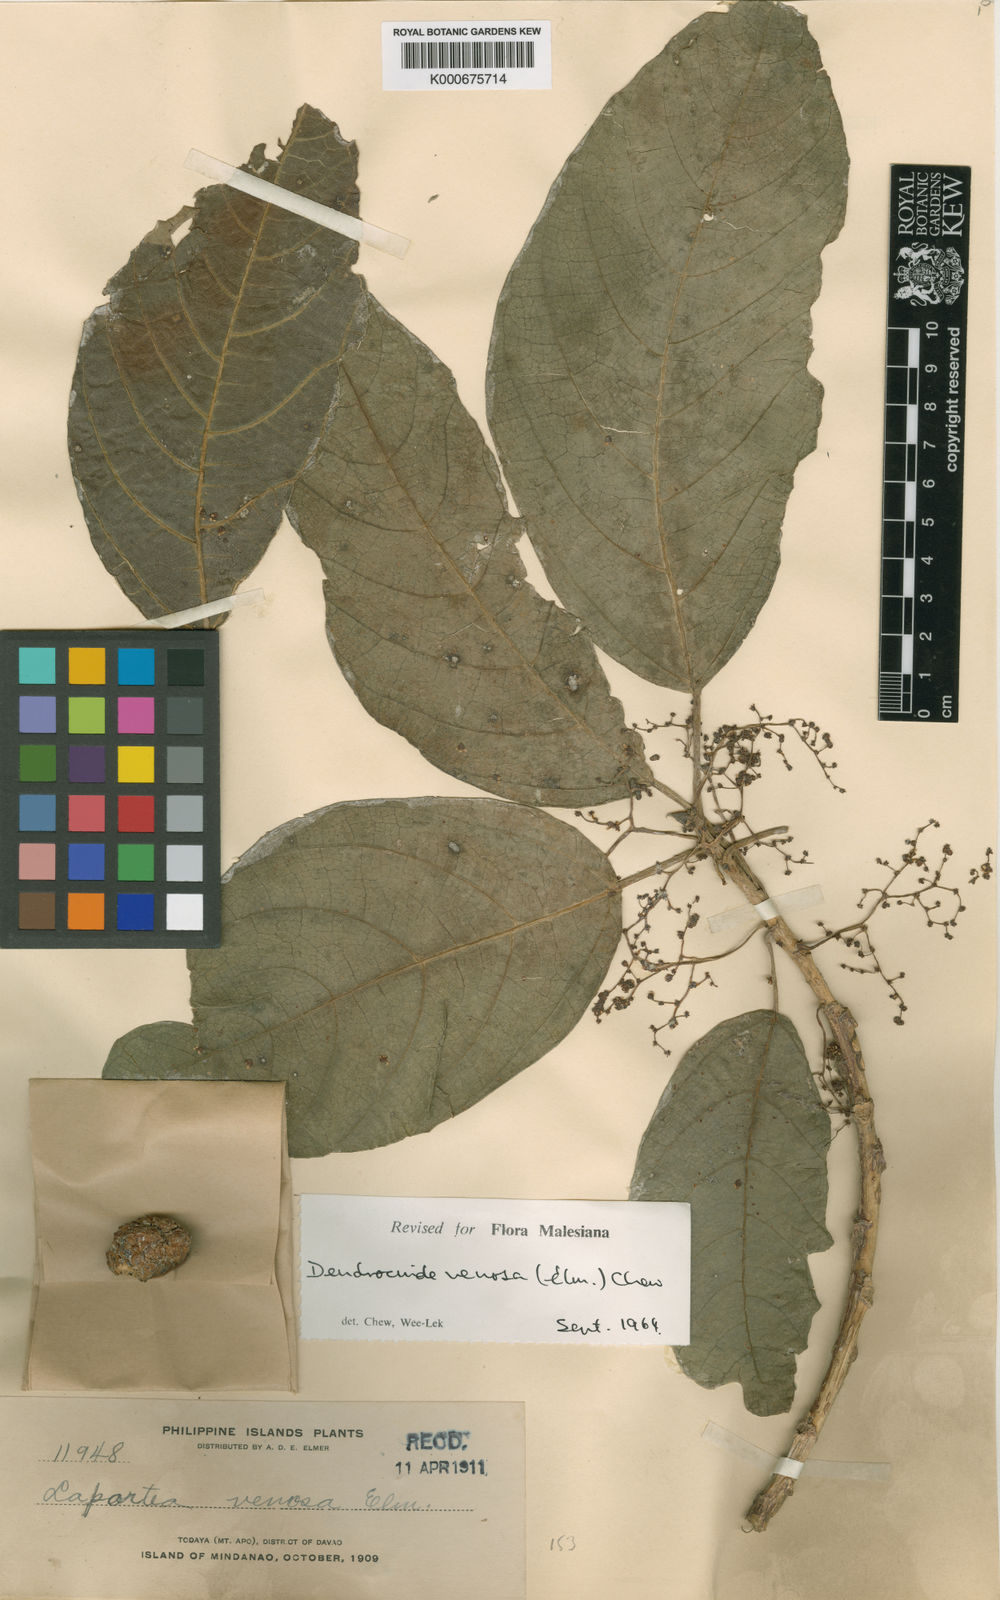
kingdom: Plantae
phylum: Tracheophyta
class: Magnoliopsida
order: Rosales
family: Urticaceae
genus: Dendrocnide
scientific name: Dendrocnide venosa
